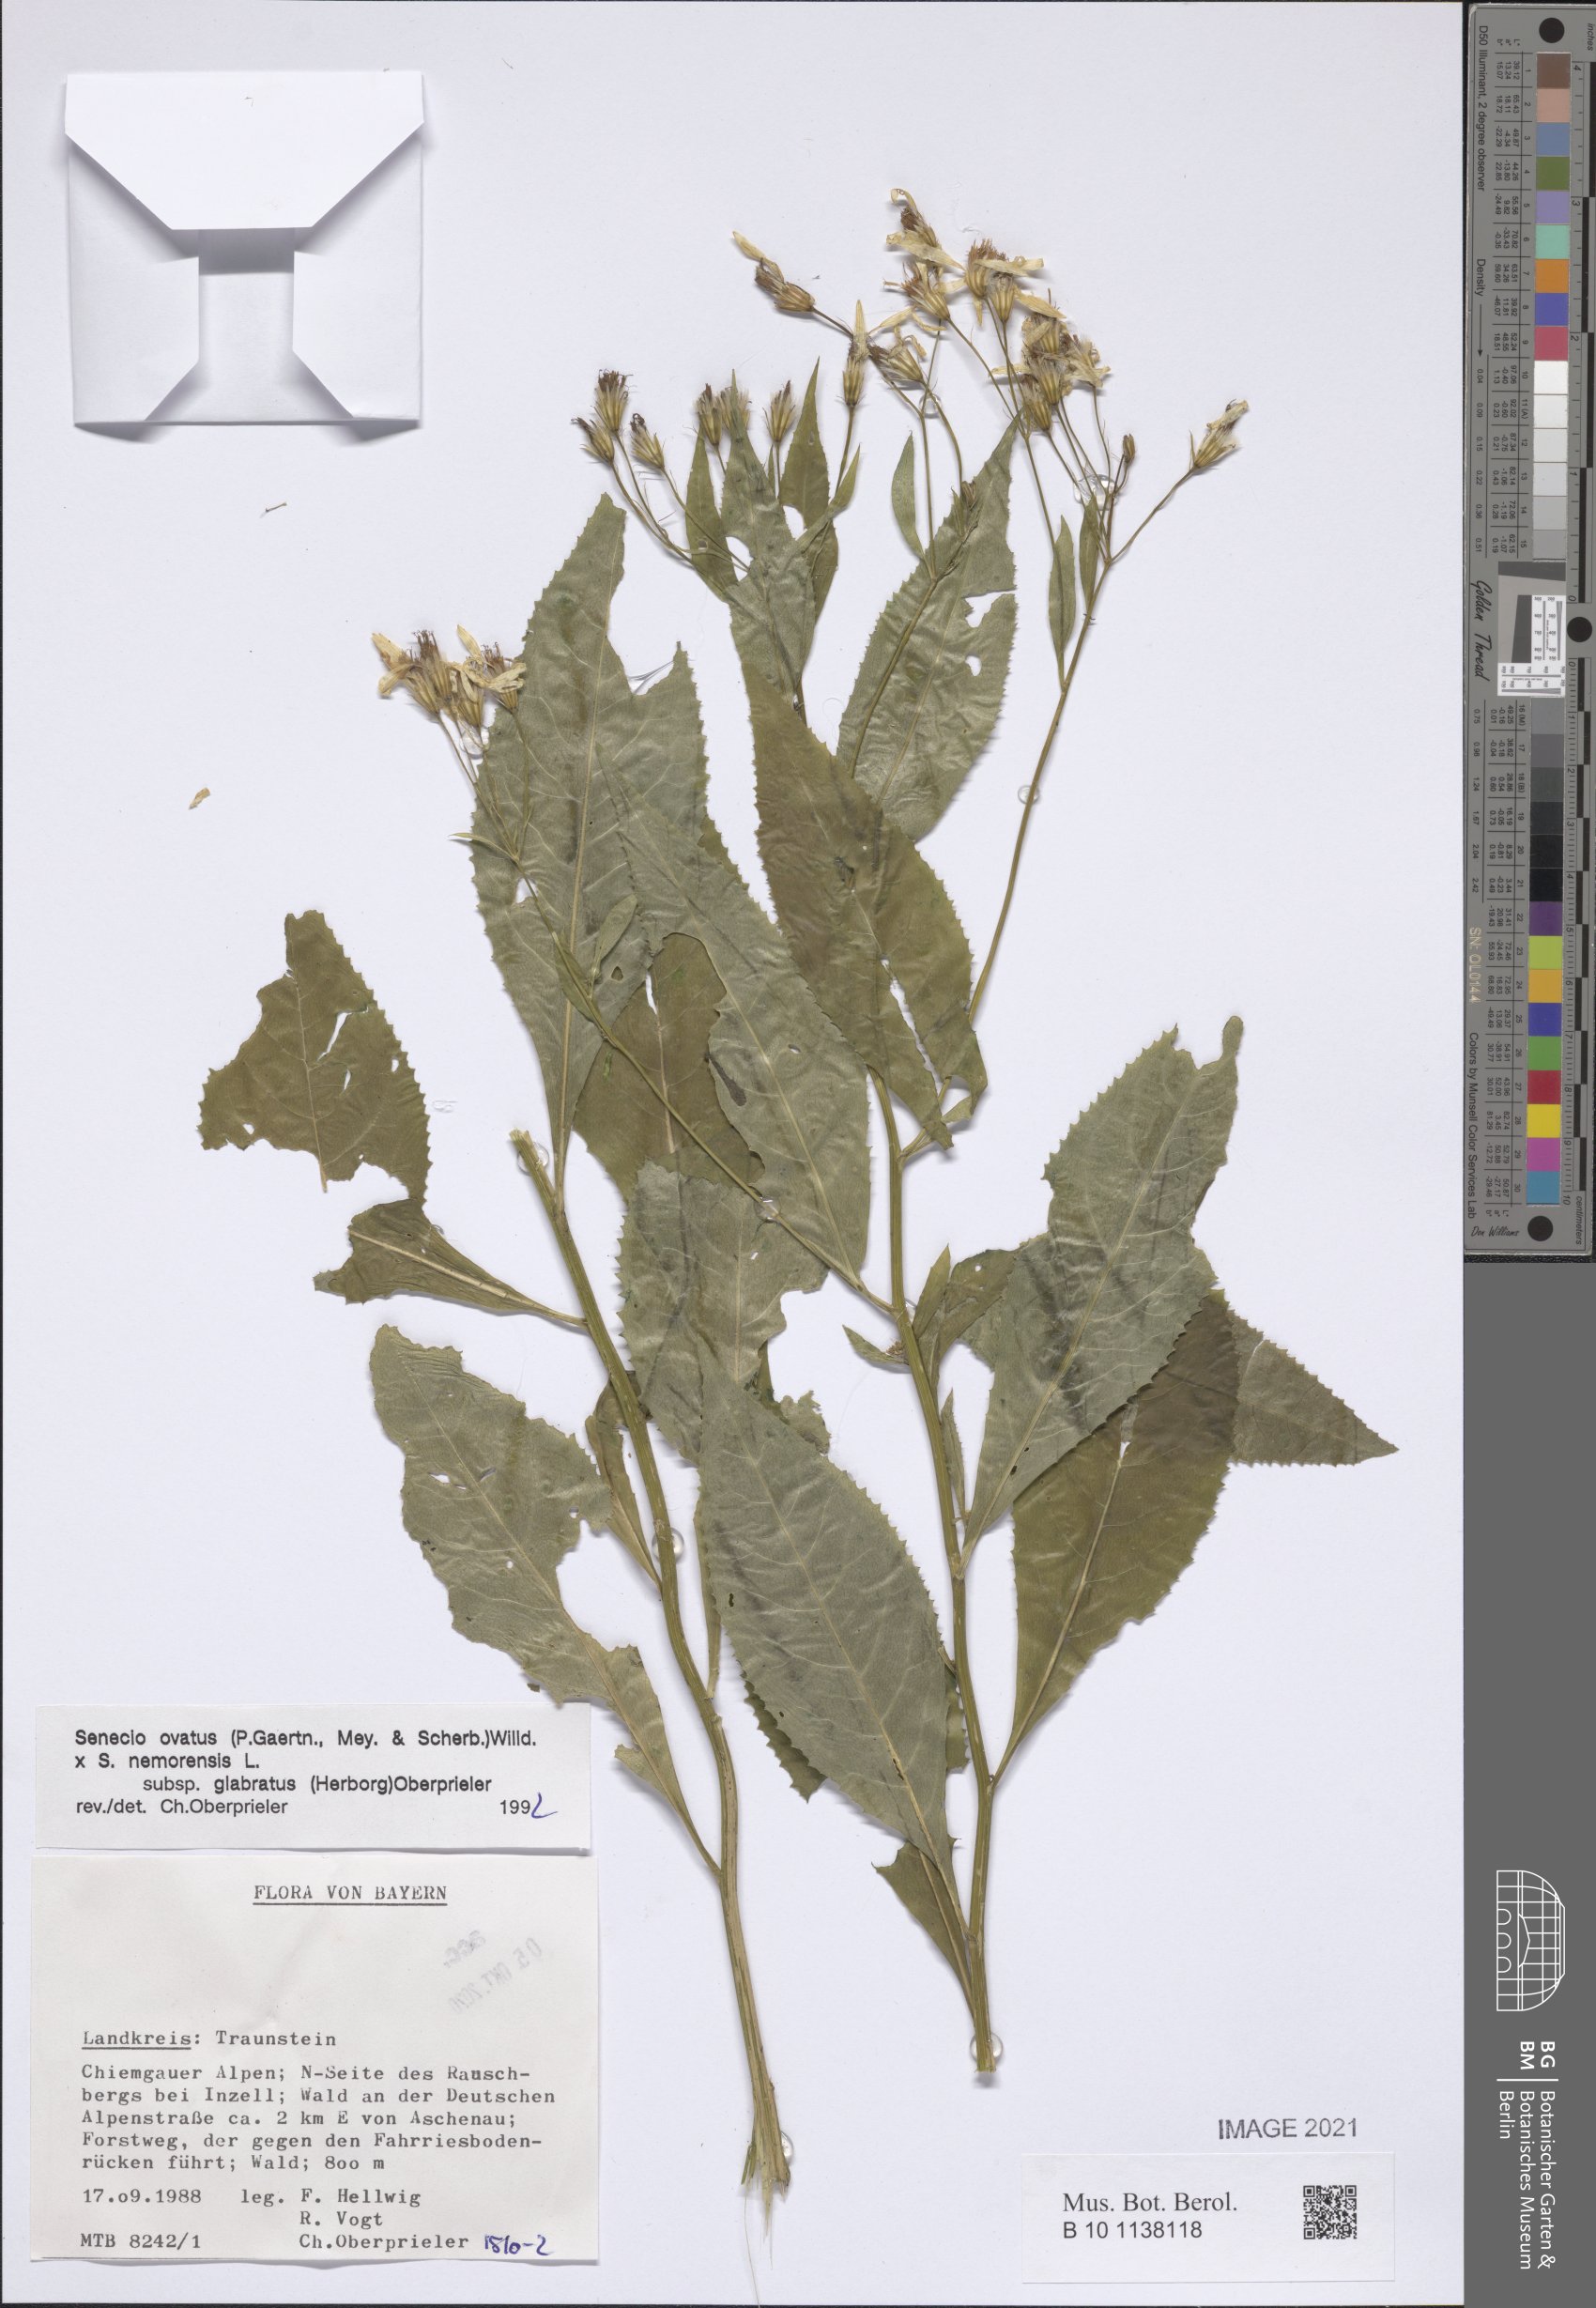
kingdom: Plantae
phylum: Tracheophyta
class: Magnoliopsida
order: Asterales
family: Asteraceae
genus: Senecio
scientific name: Senecio ovatus
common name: Wood ragwort
